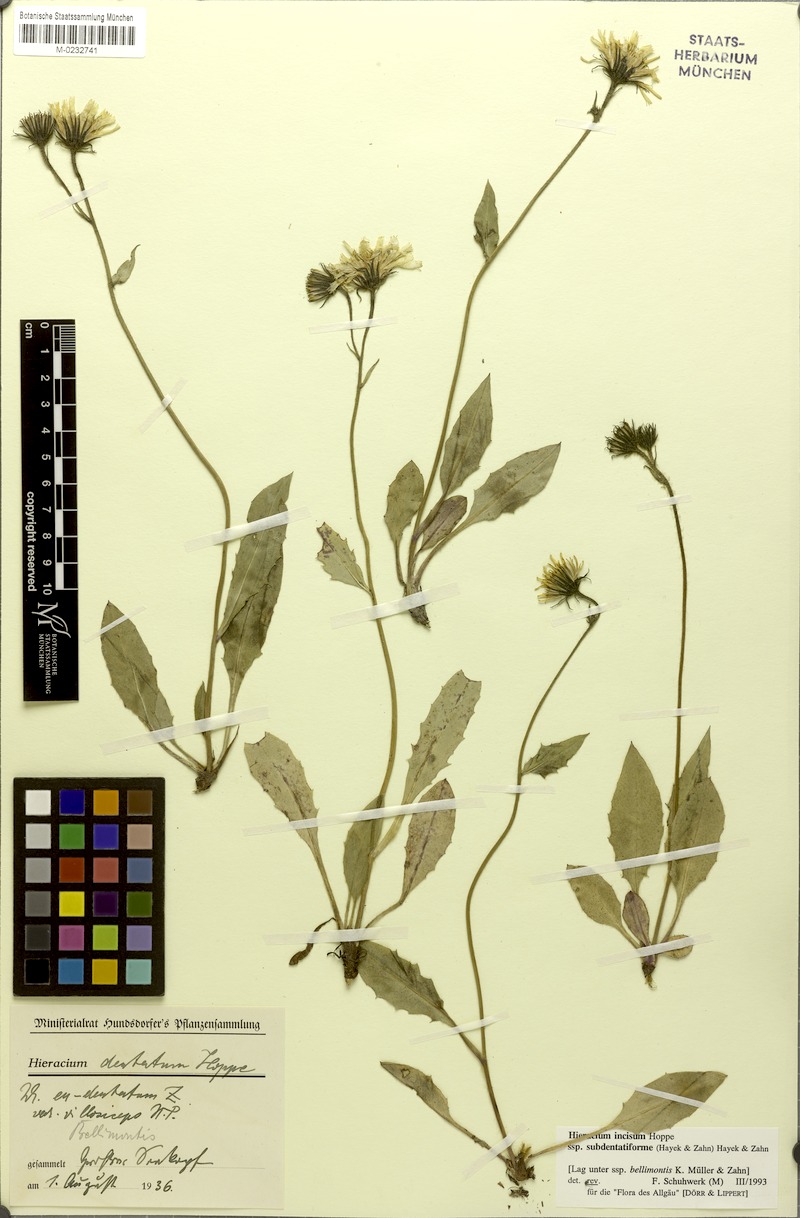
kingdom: Plantae
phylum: Tracheophyta
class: Magnoliopsida
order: Asterales
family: Asteraceae
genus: Hieracium
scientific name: Hieracium incisum
